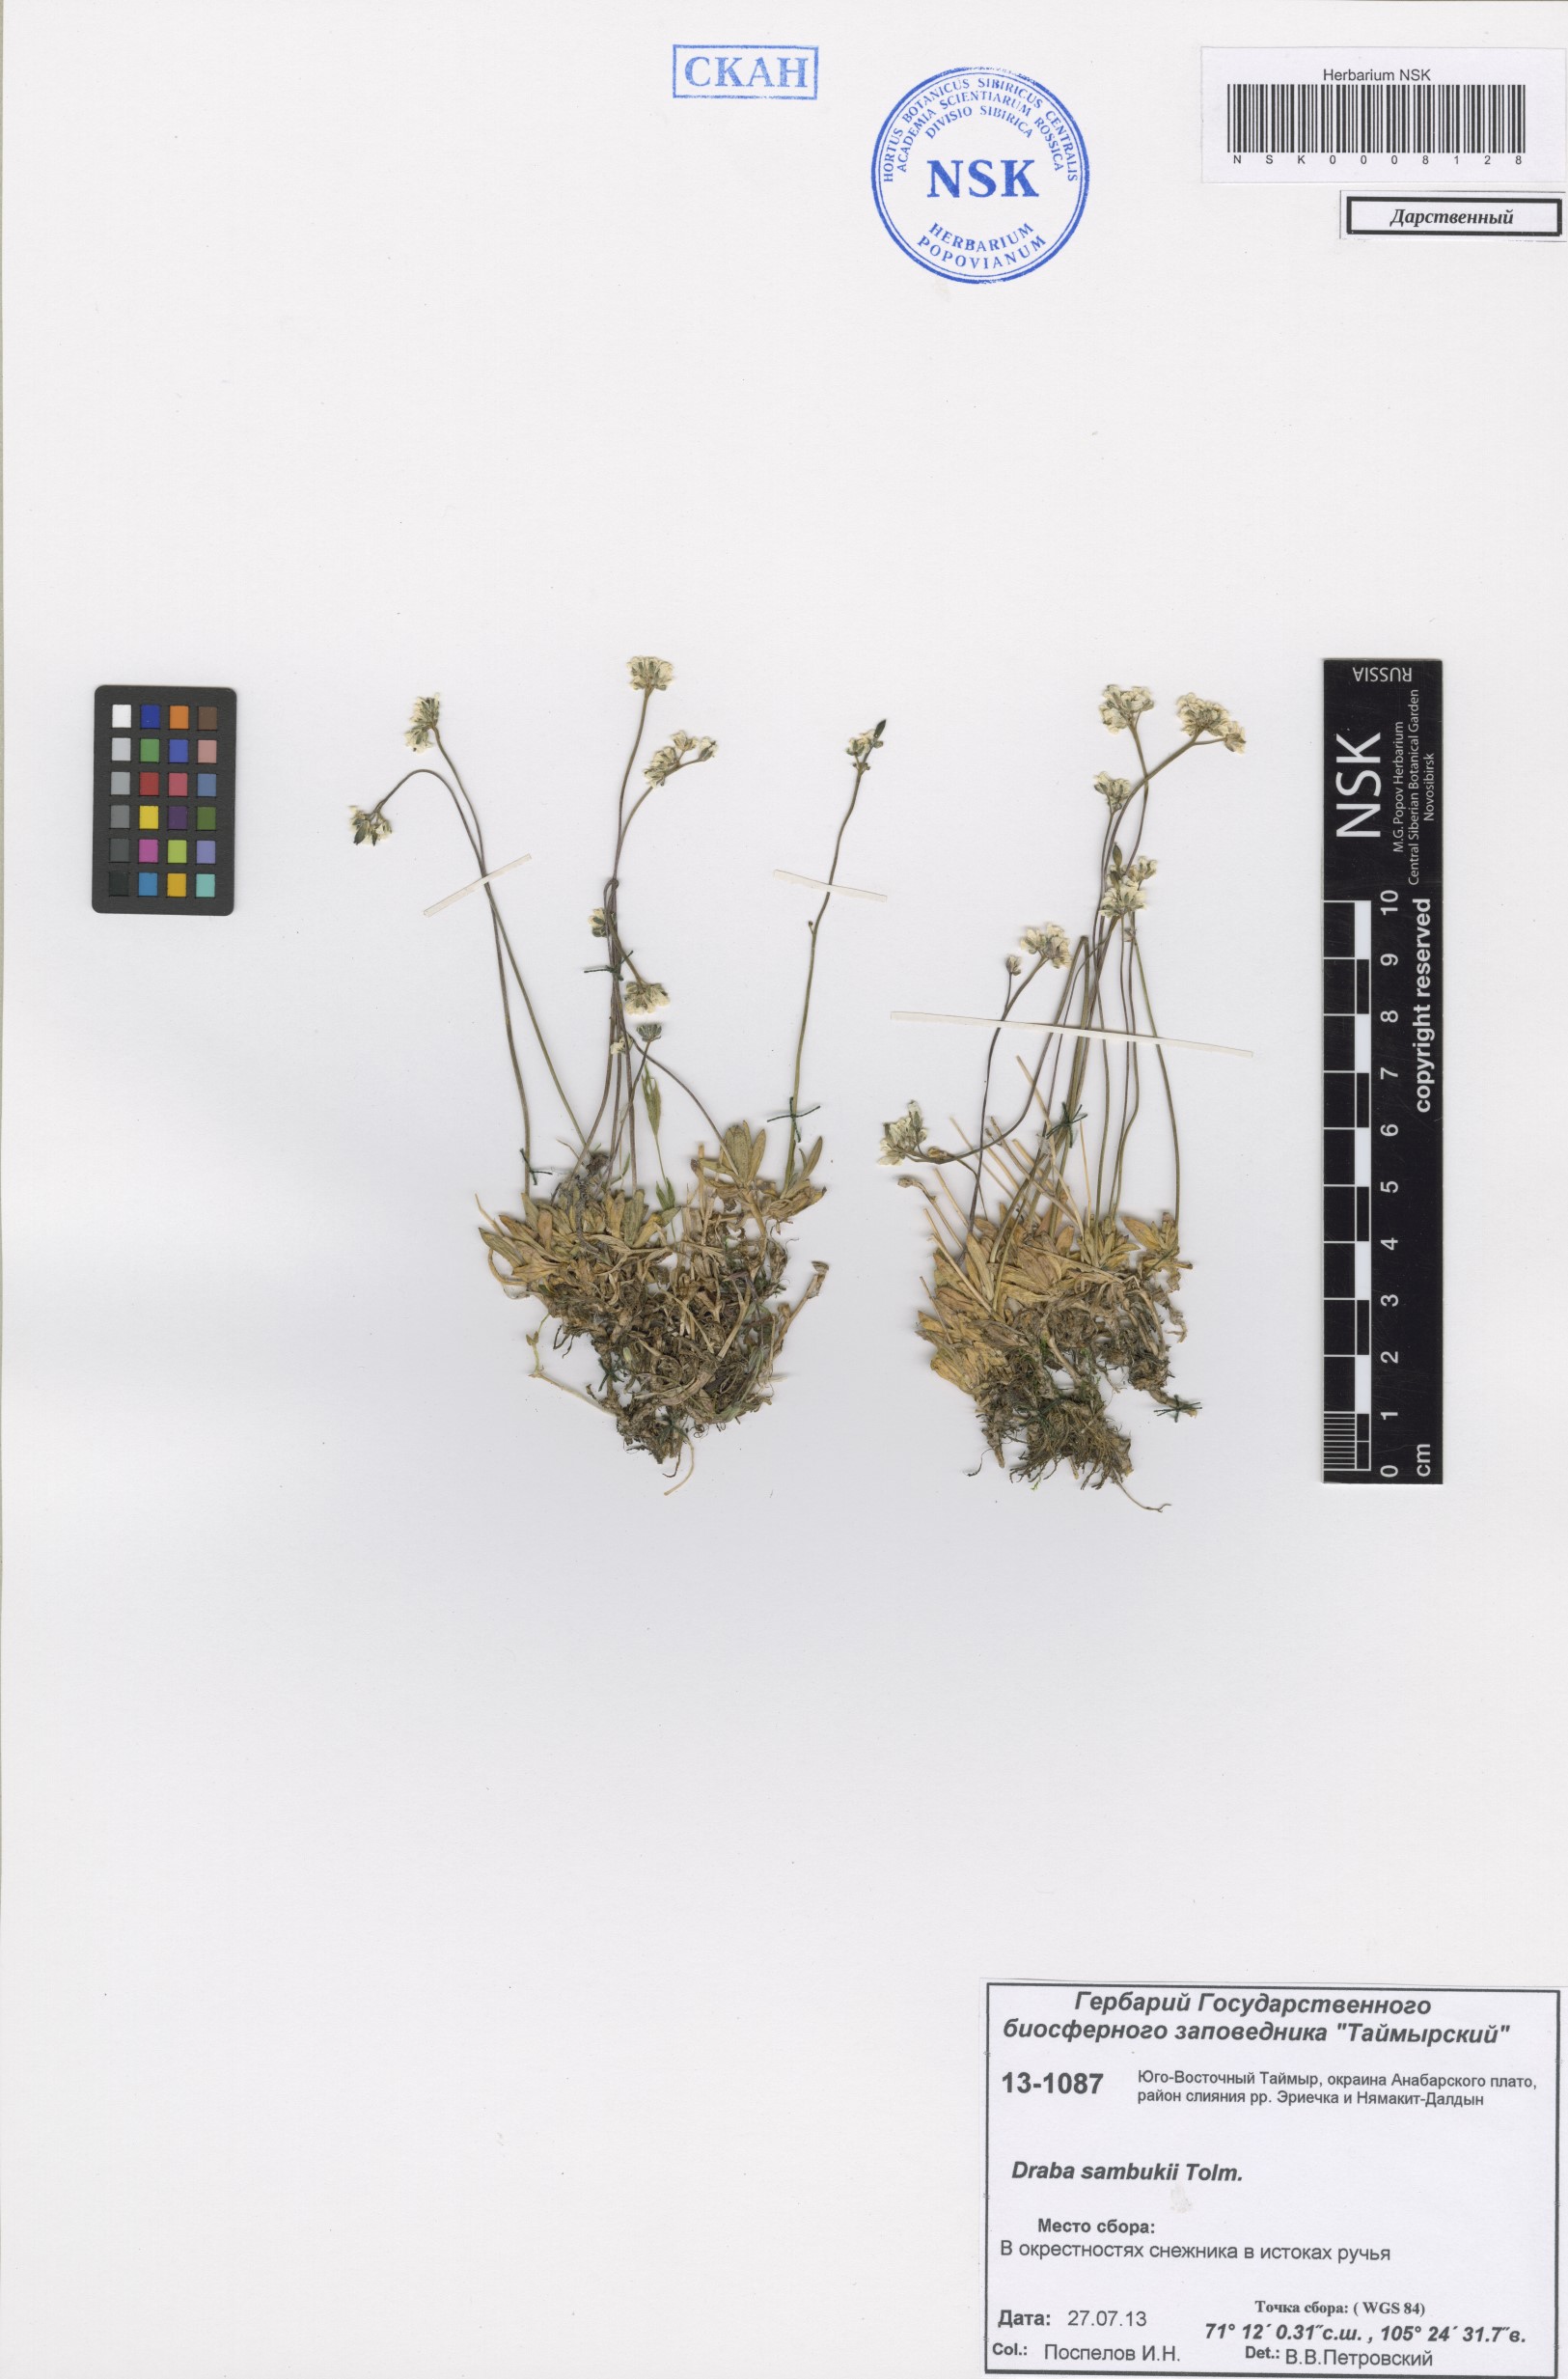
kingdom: Plantae
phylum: Tracheophyta
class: Magnoliopsida
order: Brassicales
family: Brassicaceae
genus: Draba
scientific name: Draba sambukii
